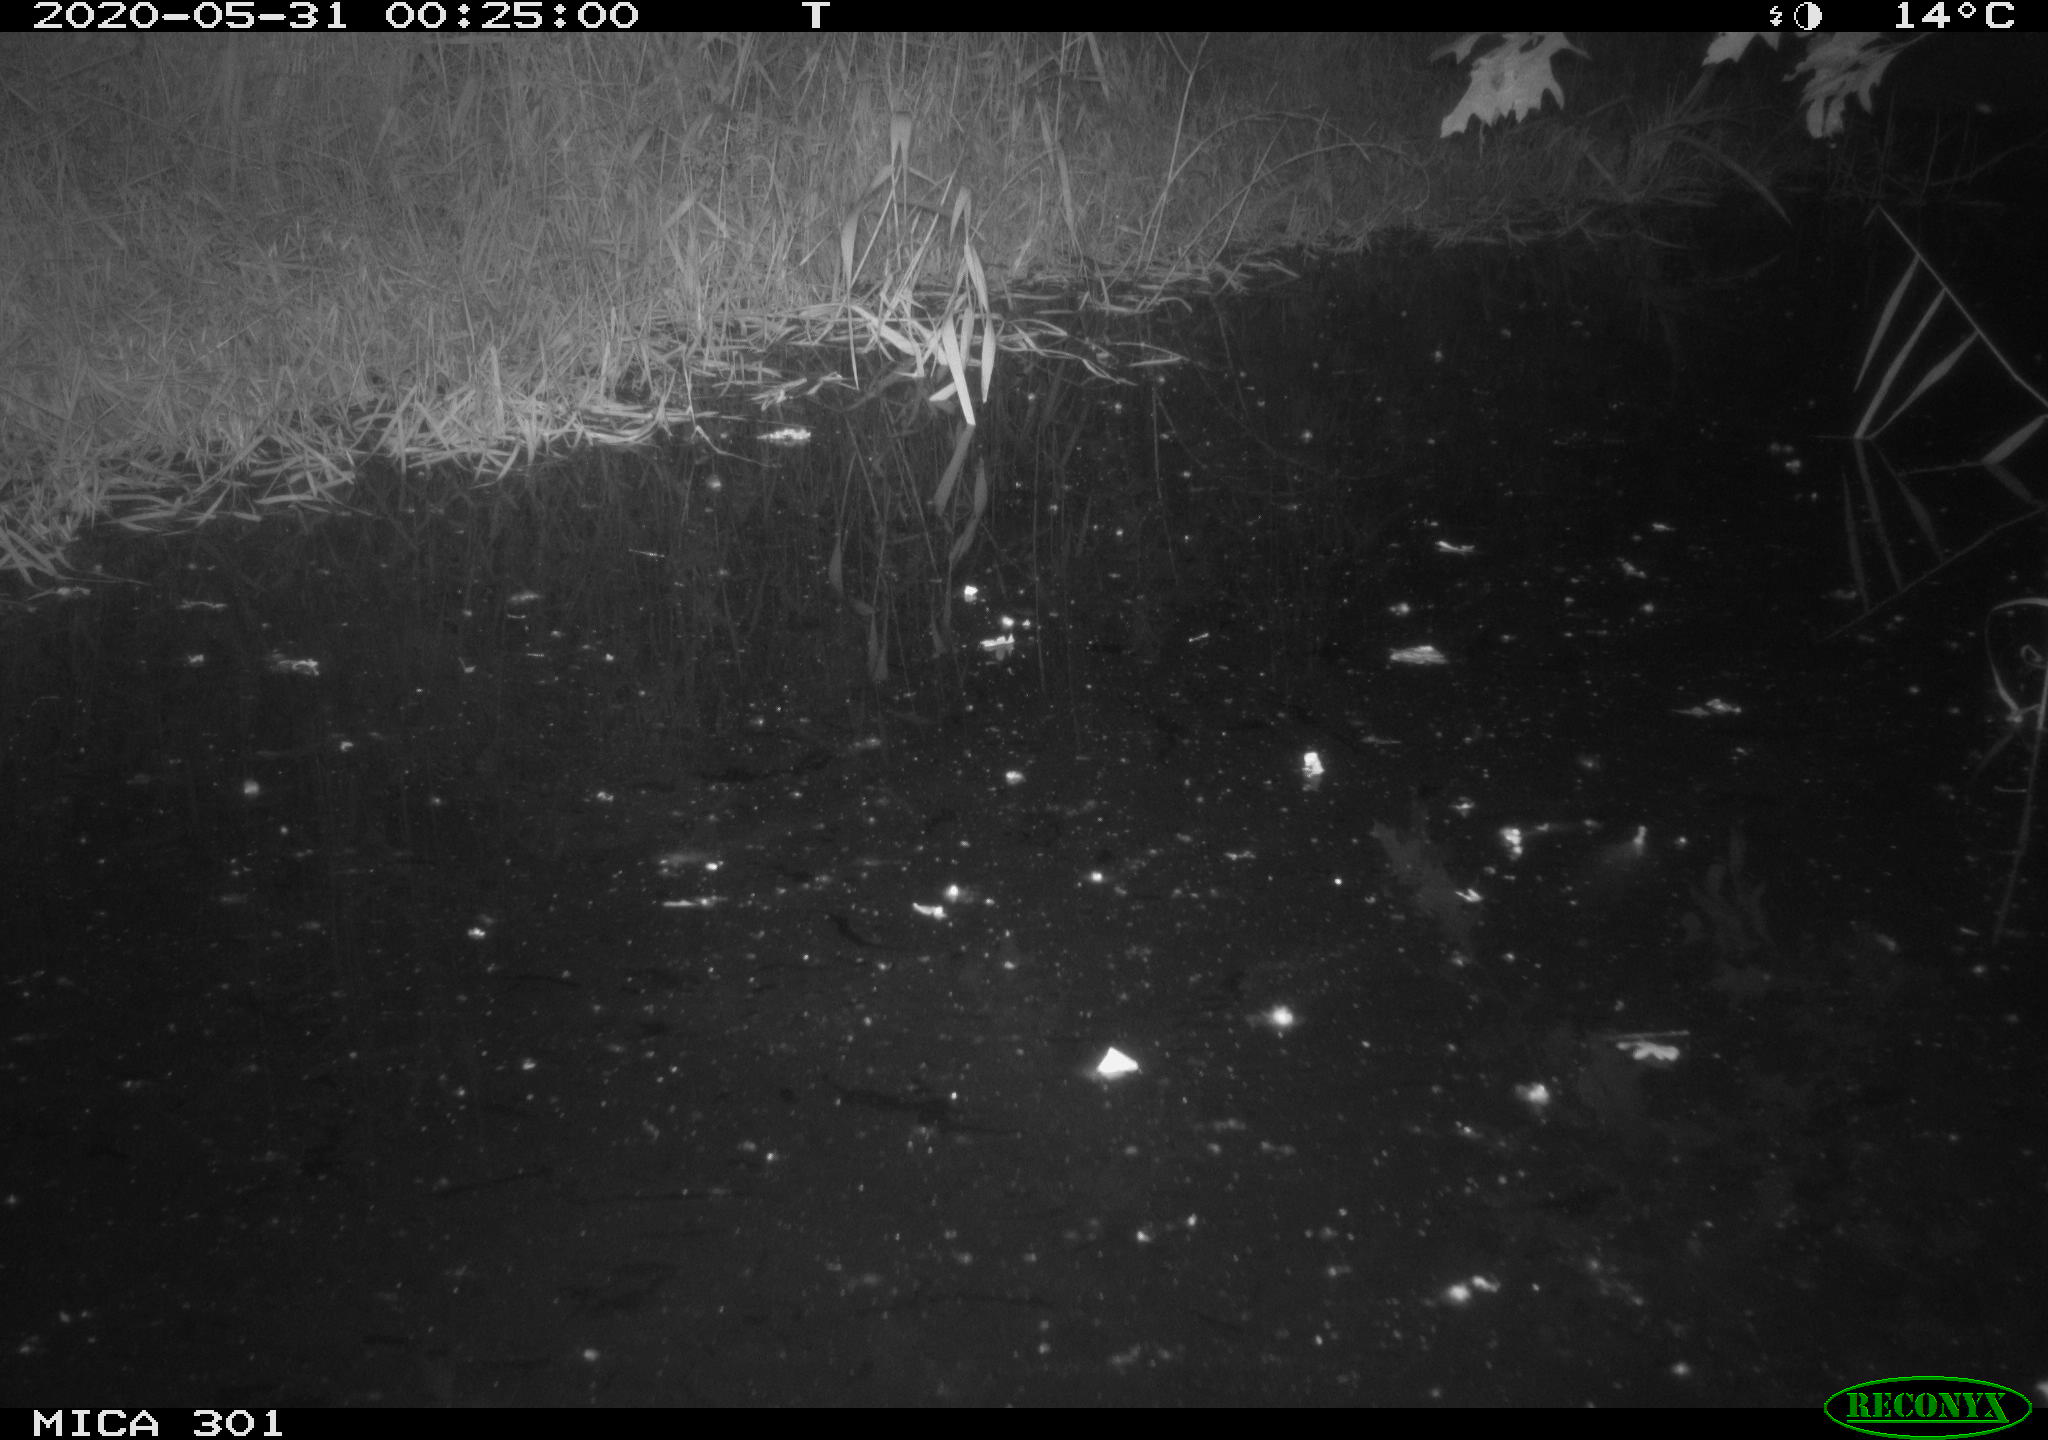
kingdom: Animalia
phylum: Chordata
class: Mammalia
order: Rodentia
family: Castoridae
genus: Castor
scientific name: Castor fiber
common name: Eurasian beaver
